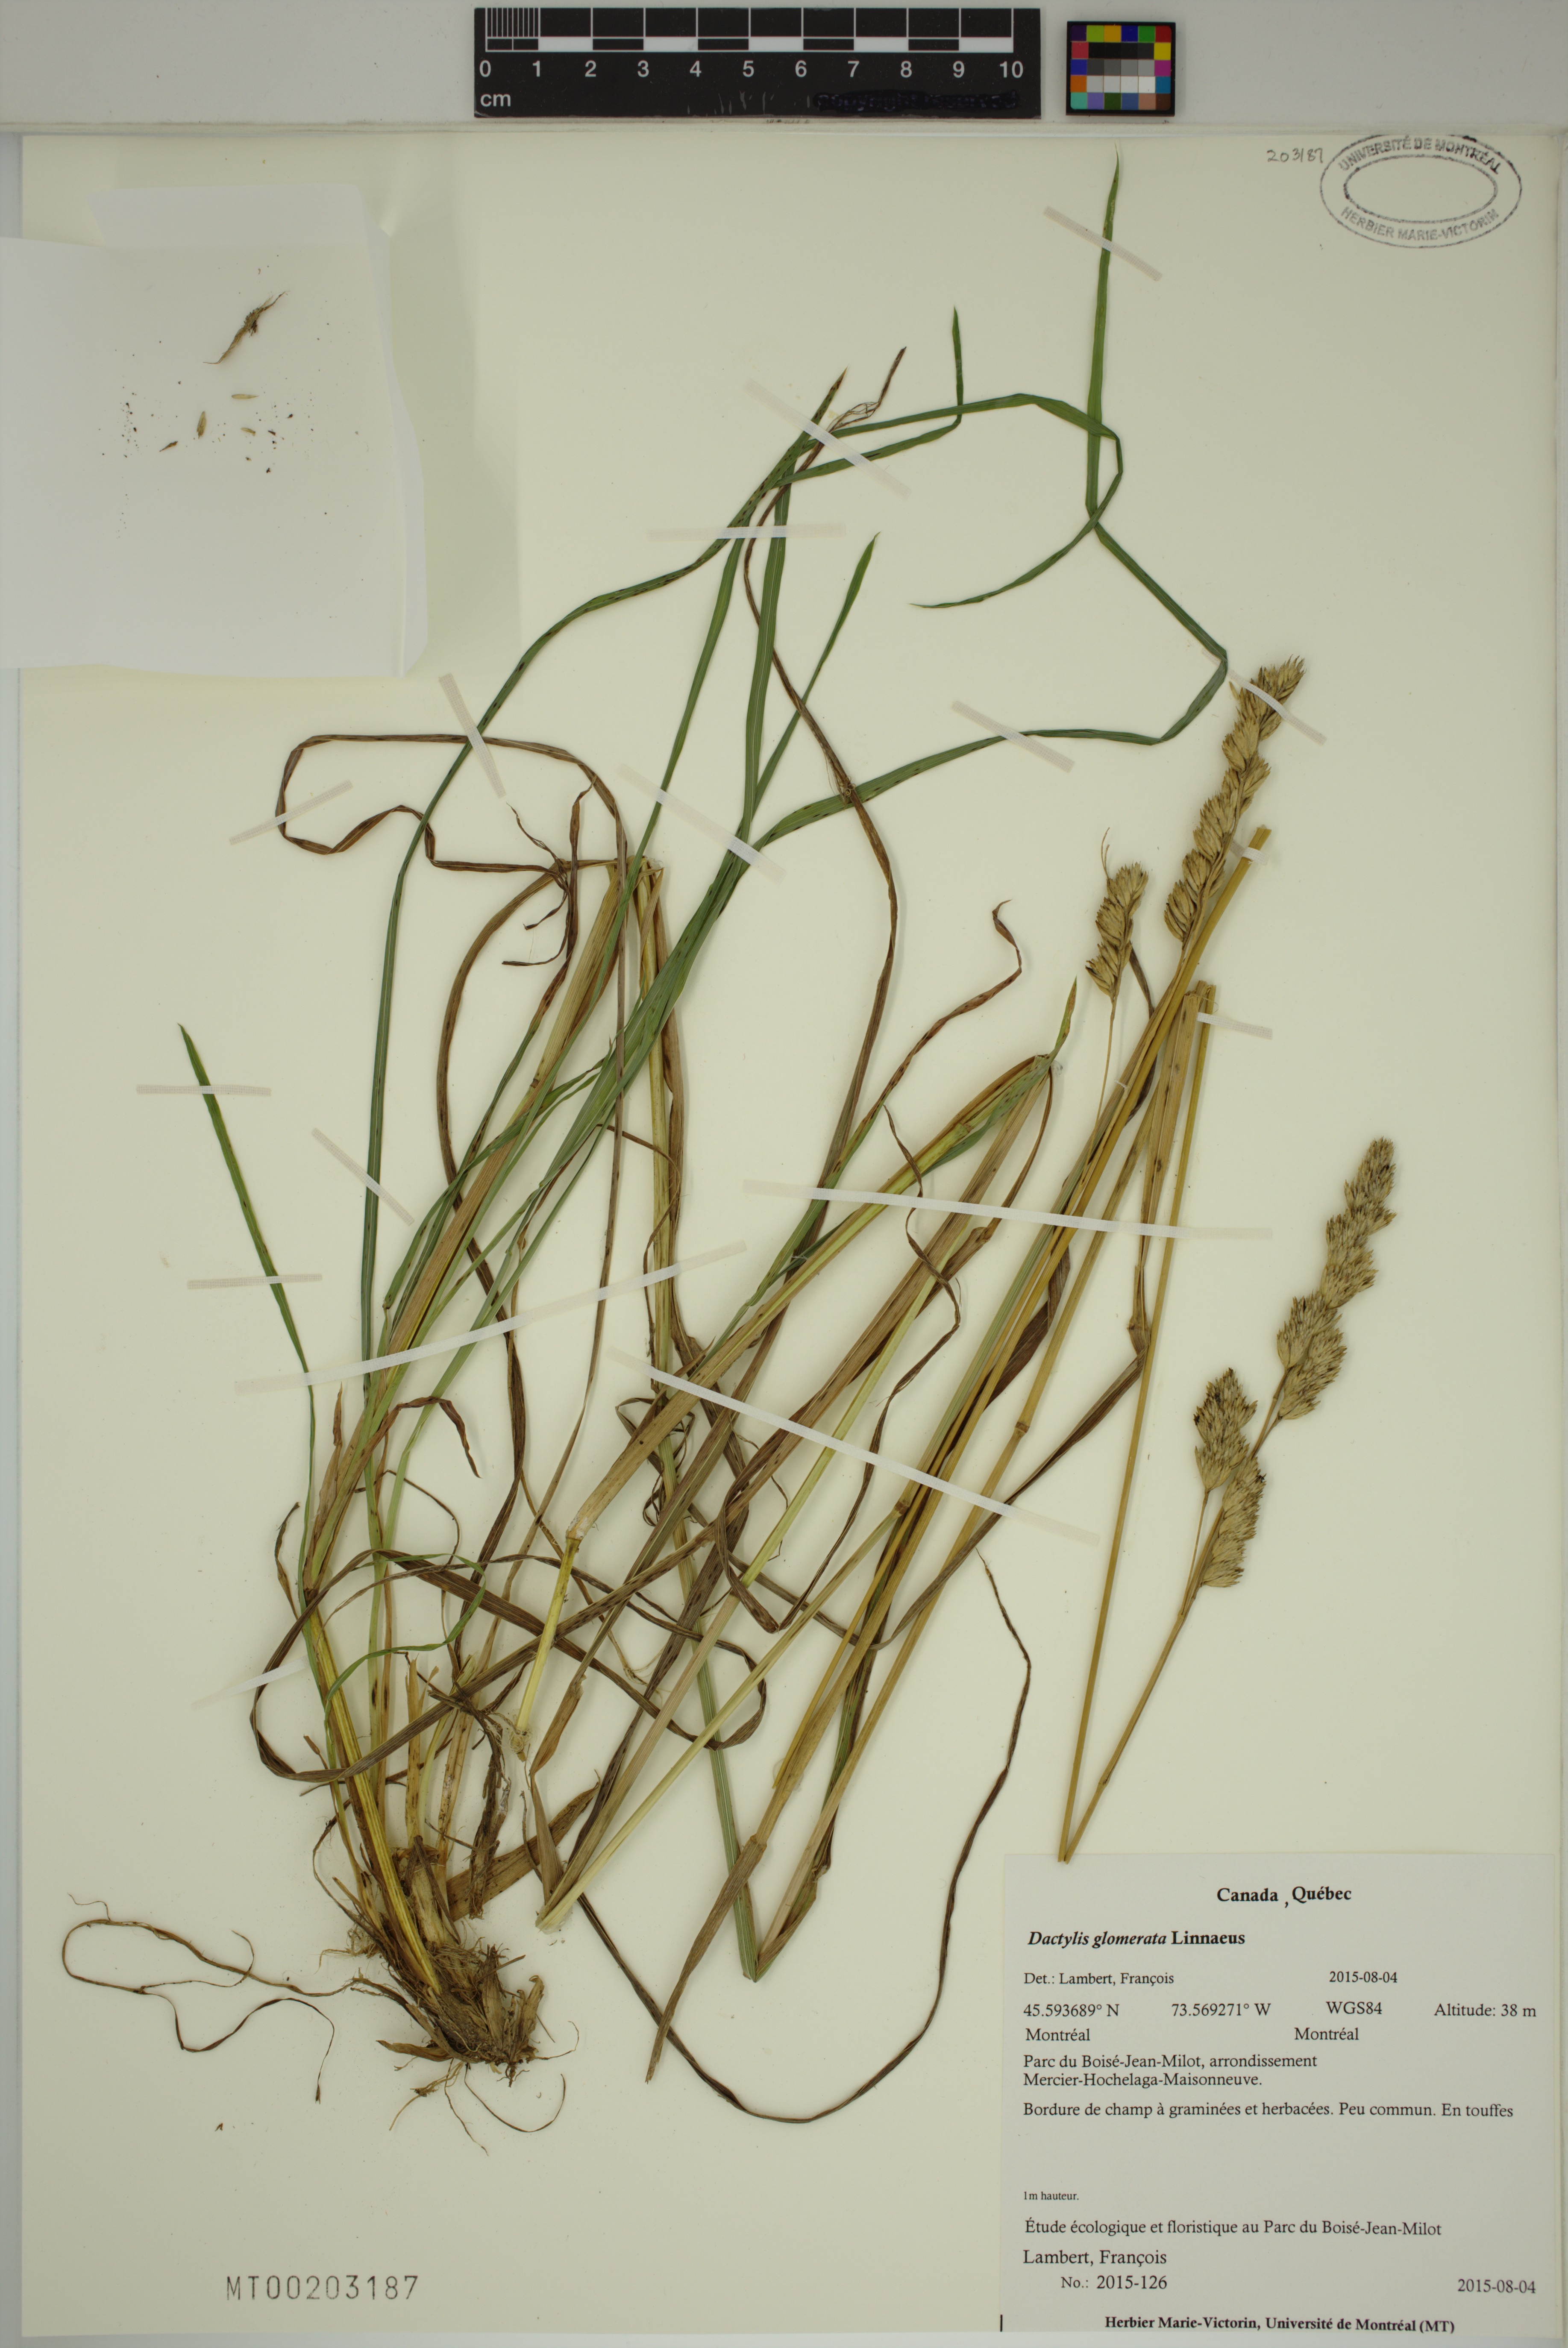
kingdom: Plantae
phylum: Tracheophyta
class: Liliopsida
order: Poales
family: Poaceae
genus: Dactylis
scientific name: Dactylis glomerata
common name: Orchardgrass
